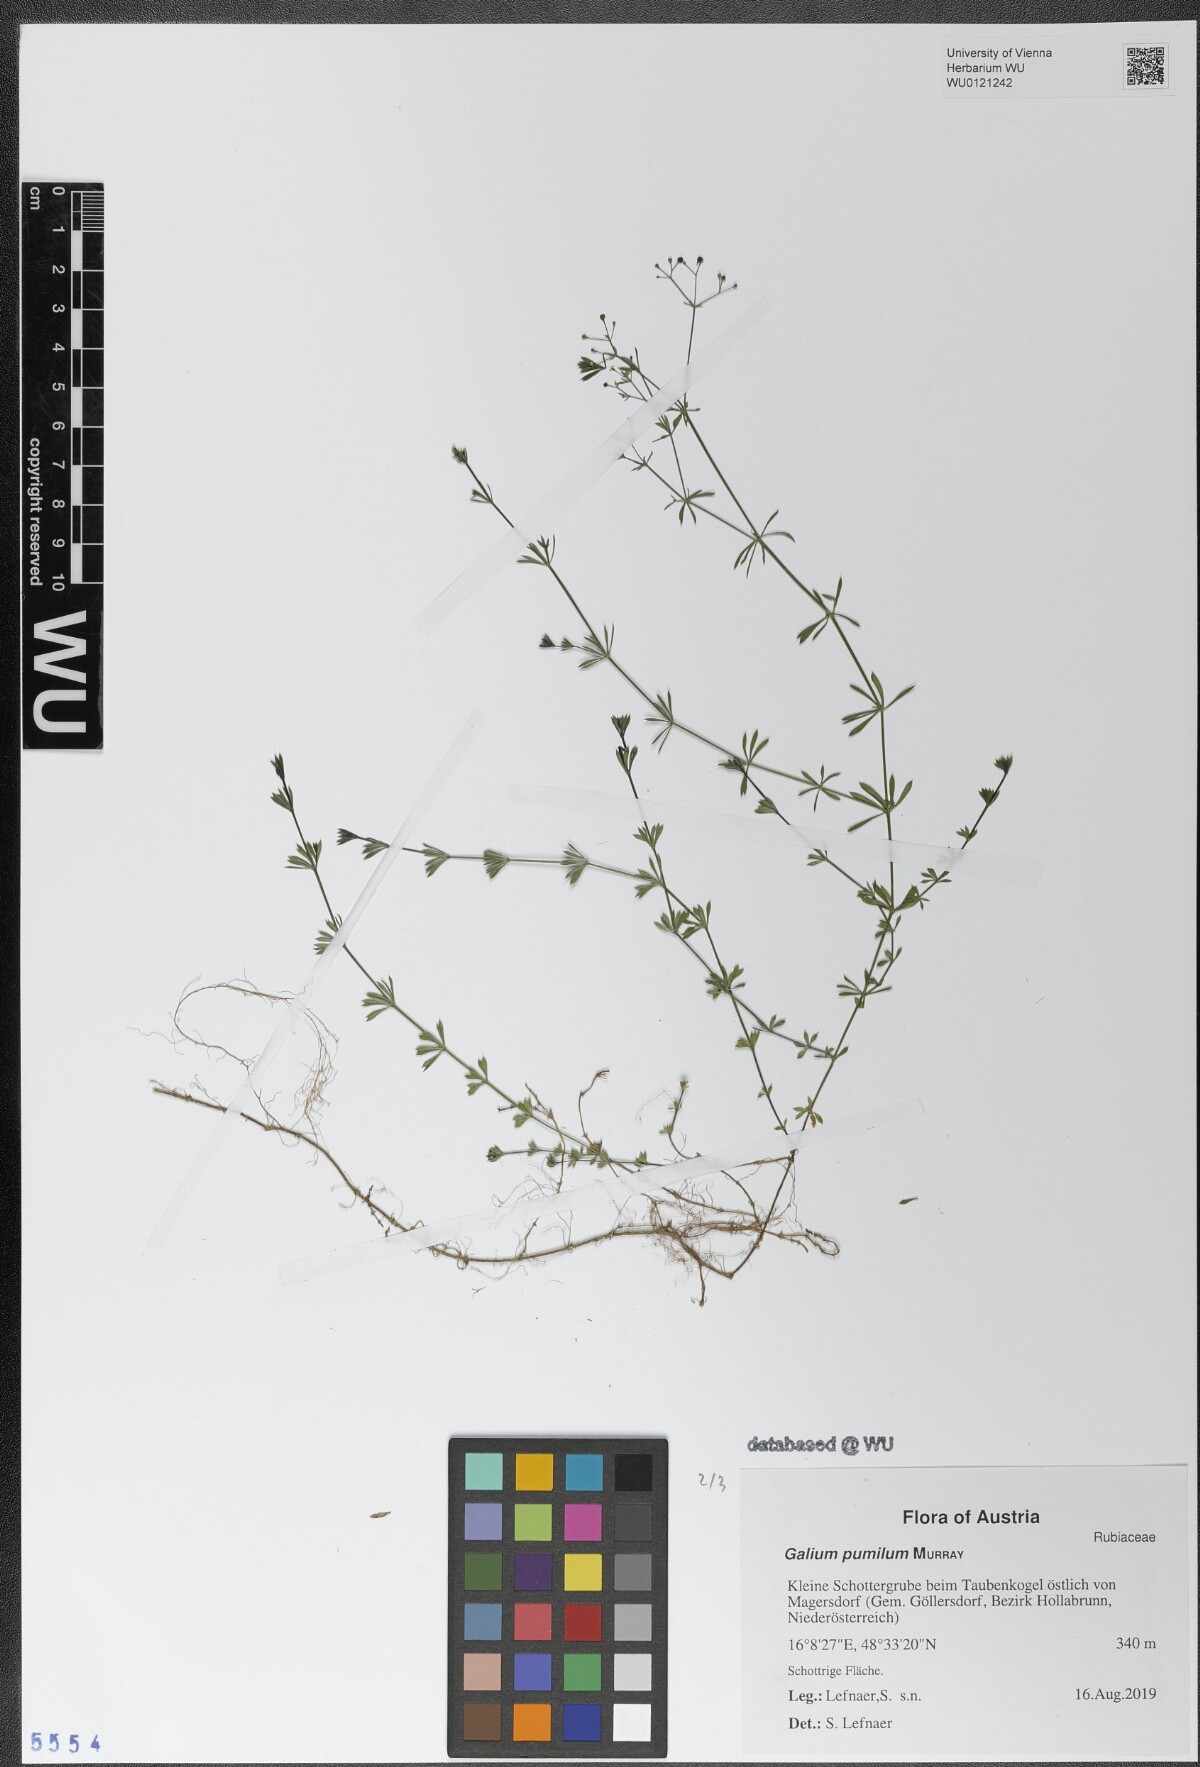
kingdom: Plantae
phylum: Tracheophyta
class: Magnoliopsida
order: Gentianales
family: Rubiaceae
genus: Galium
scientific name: Galium pumilum
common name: Slender bedstraw
